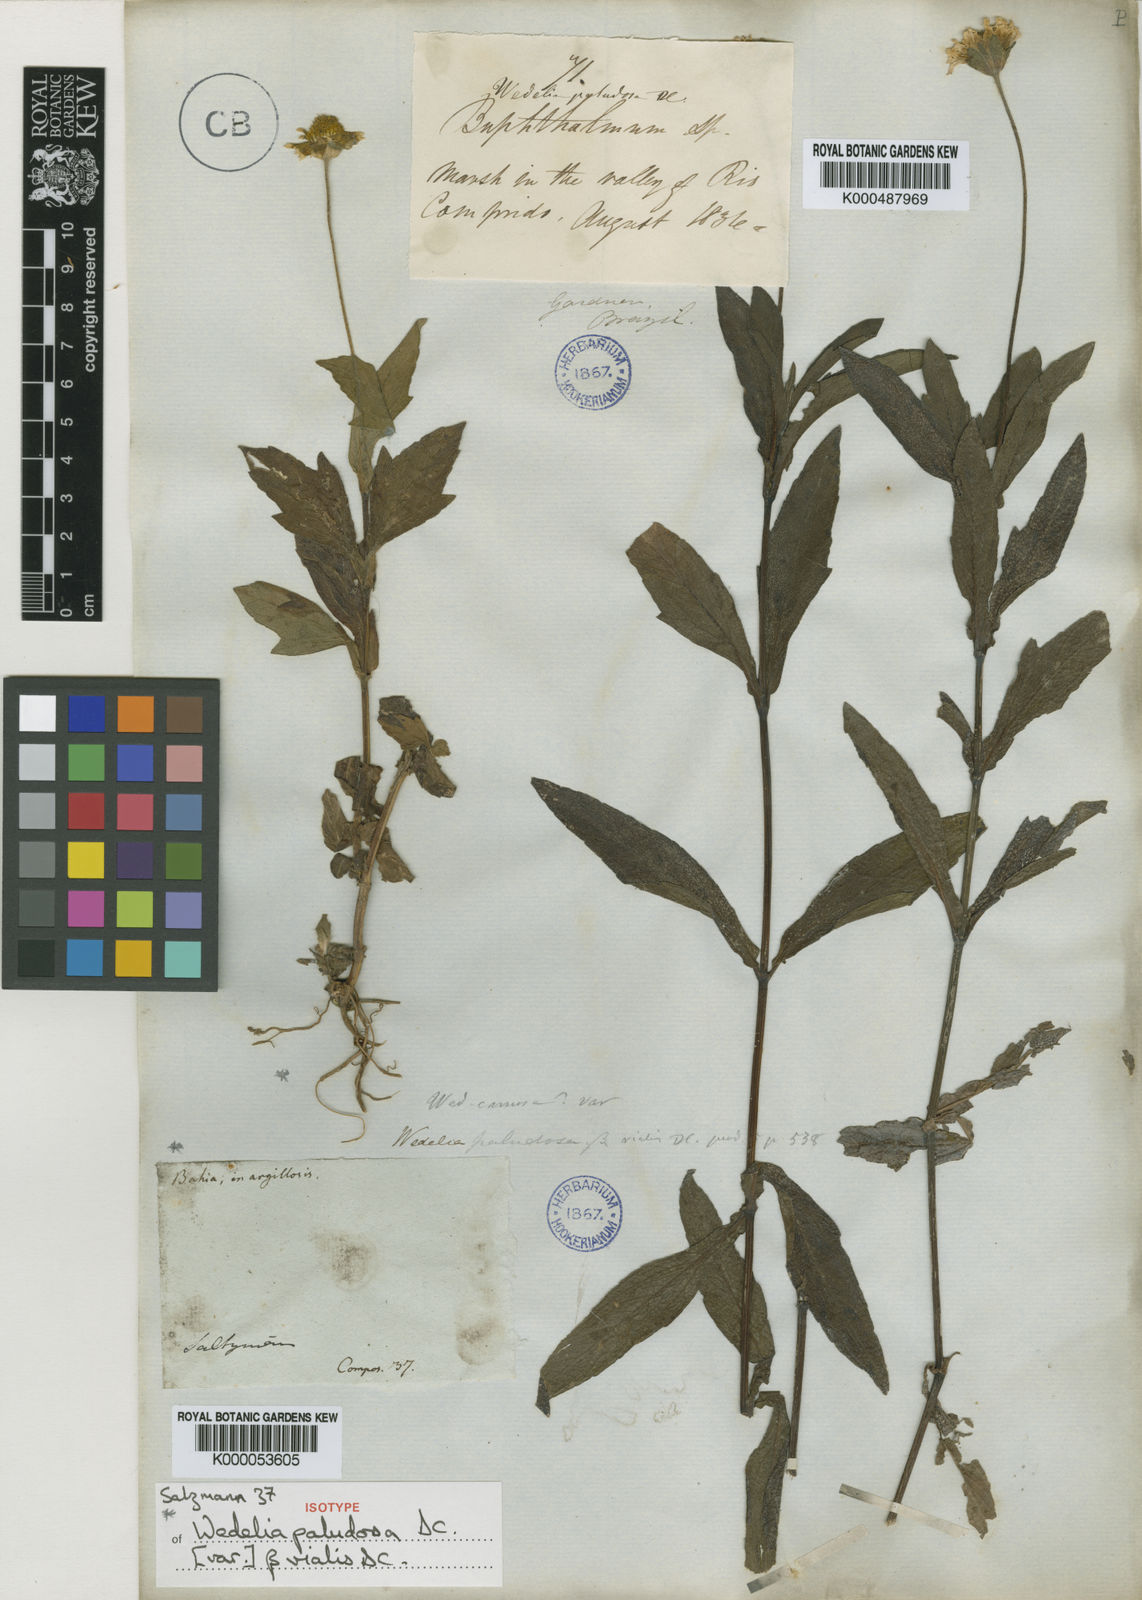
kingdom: Plantae
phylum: Tracheophyta
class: Magnoliopsida
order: Asterales
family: Asteraceae
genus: Sphagneticola
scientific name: Sphagneticola trilobata
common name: Bay biscayne creeping-oxeye
